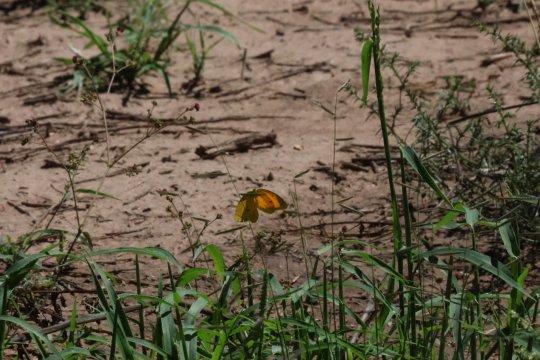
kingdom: Animalia
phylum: Arthropoda
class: Insecta
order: Lepidoptera
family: Pieridae
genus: Abaeis
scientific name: Abaeis nicippe
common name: Sleepy Orange
